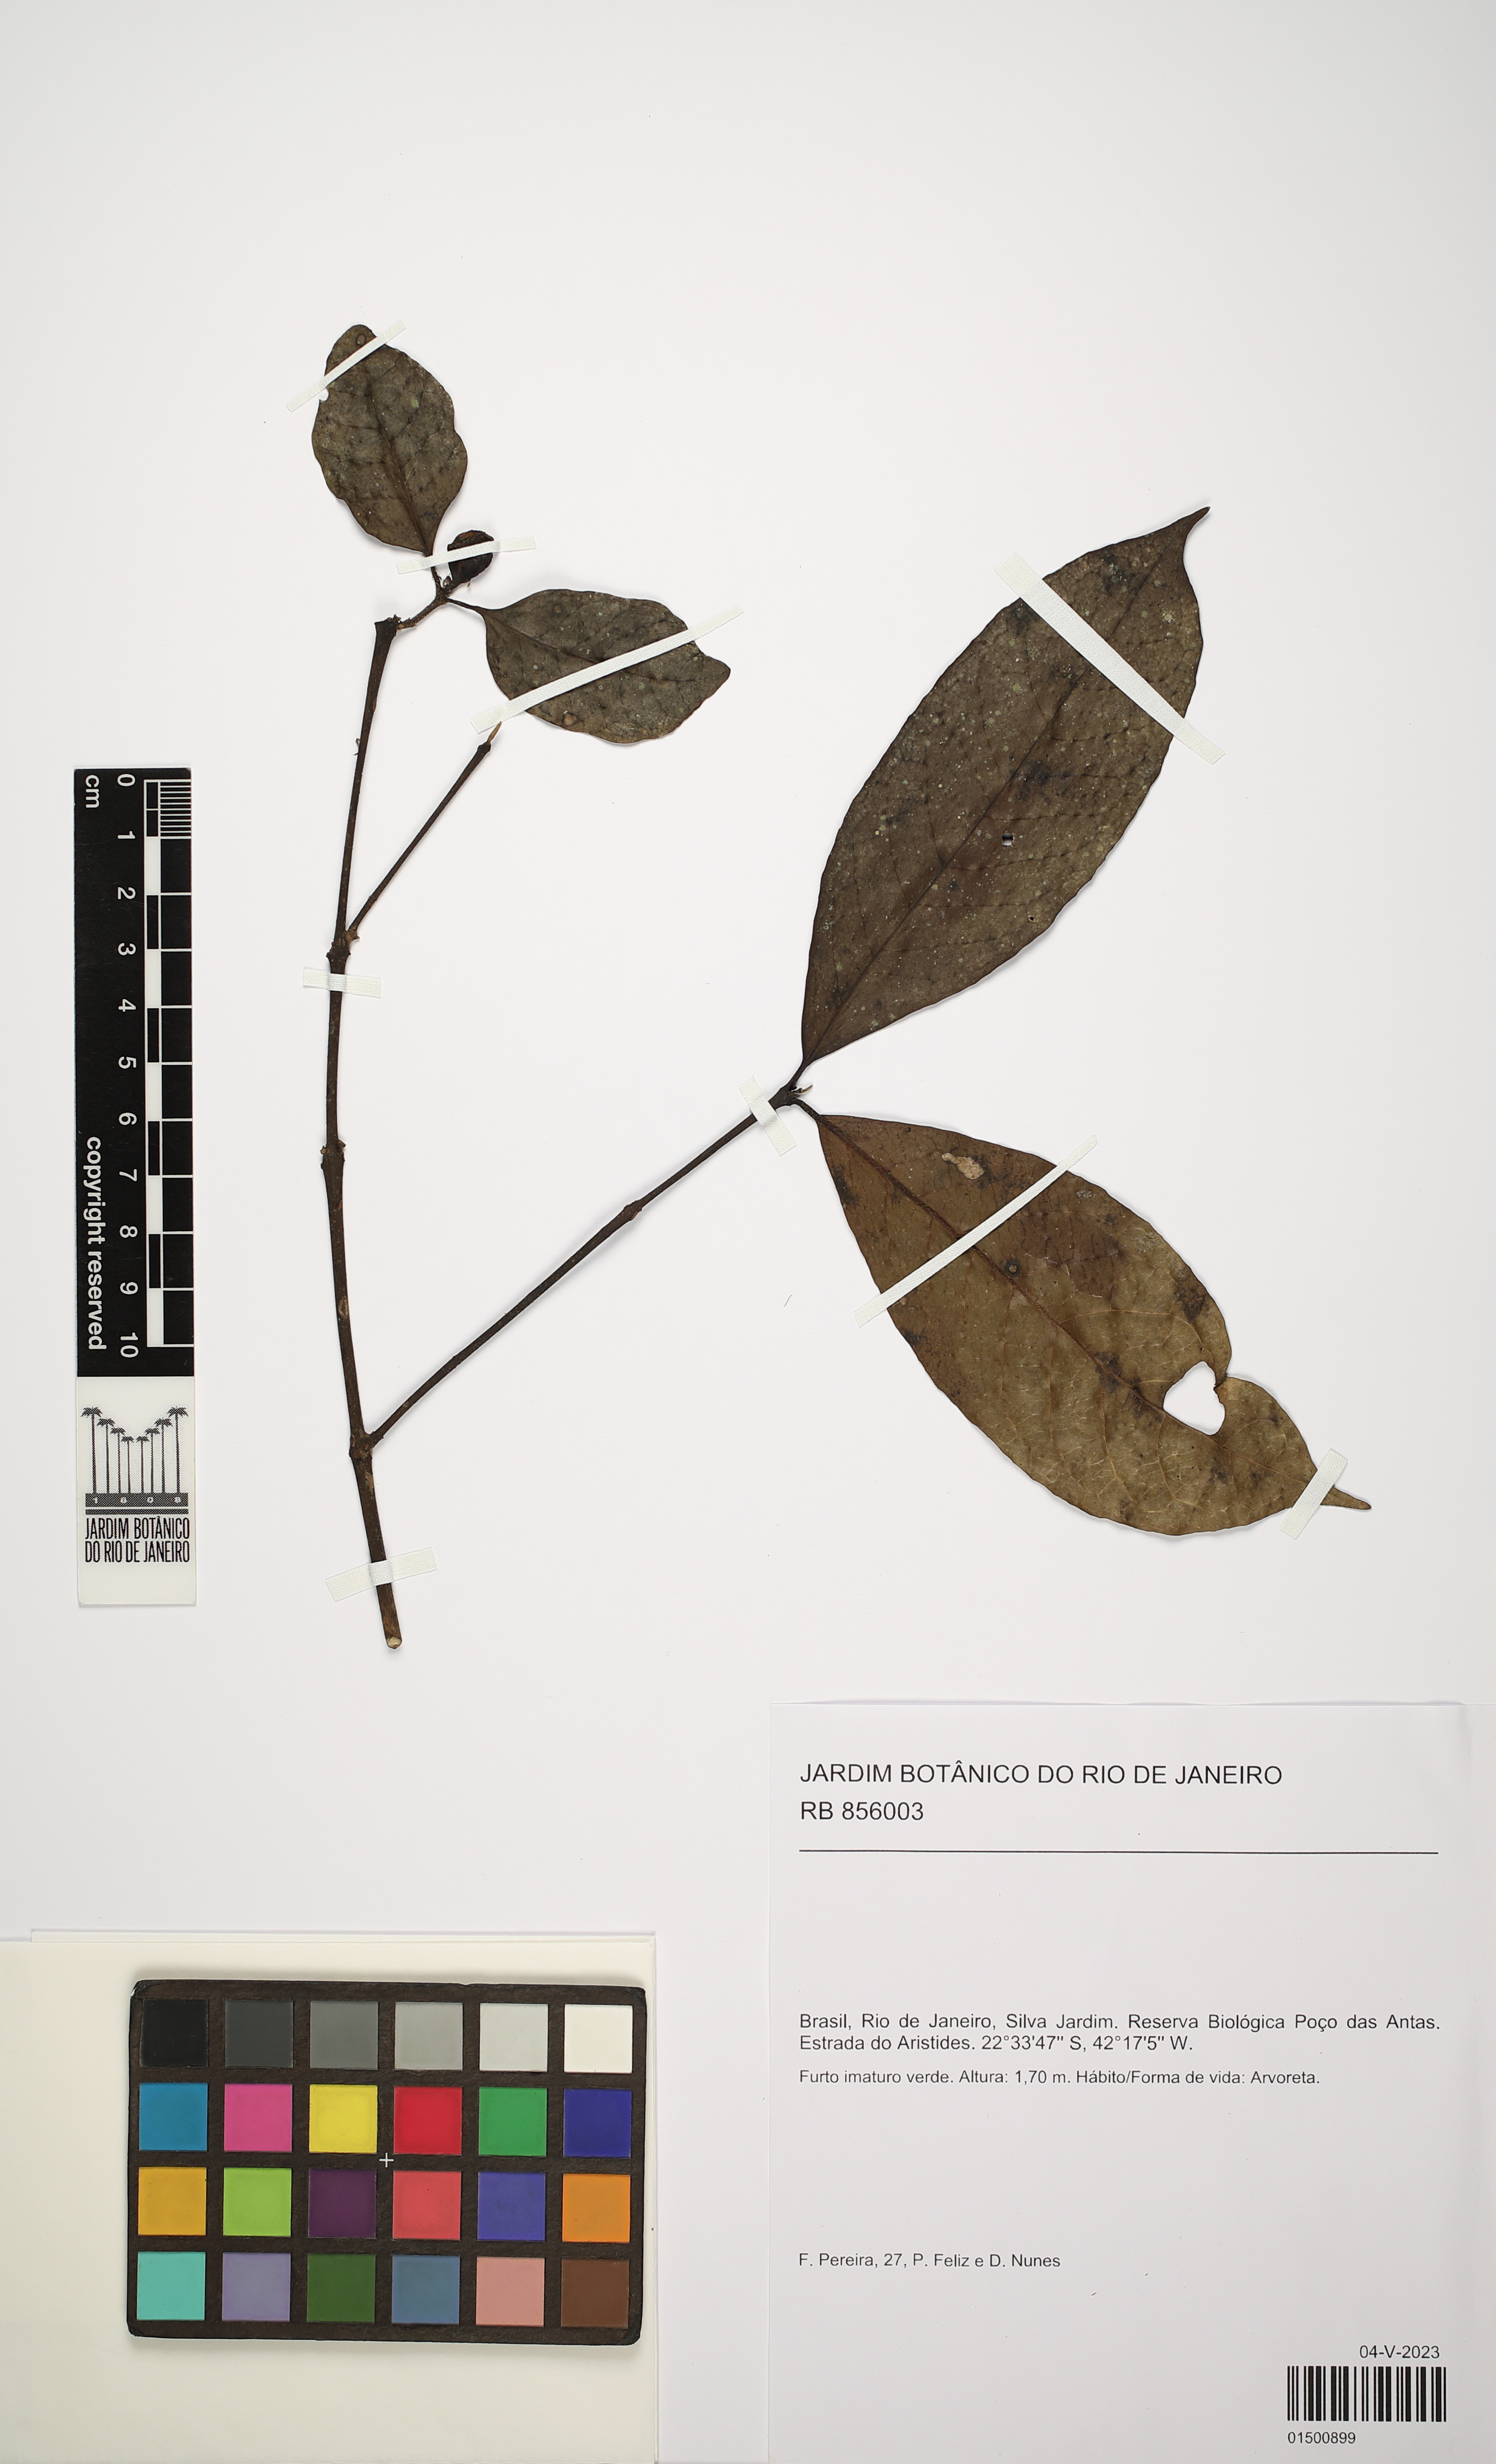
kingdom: Plantae
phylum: Tracheophyta
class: Magnoliopsida
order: Laurales
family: Siparunaceae
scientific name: Siparunaceae
